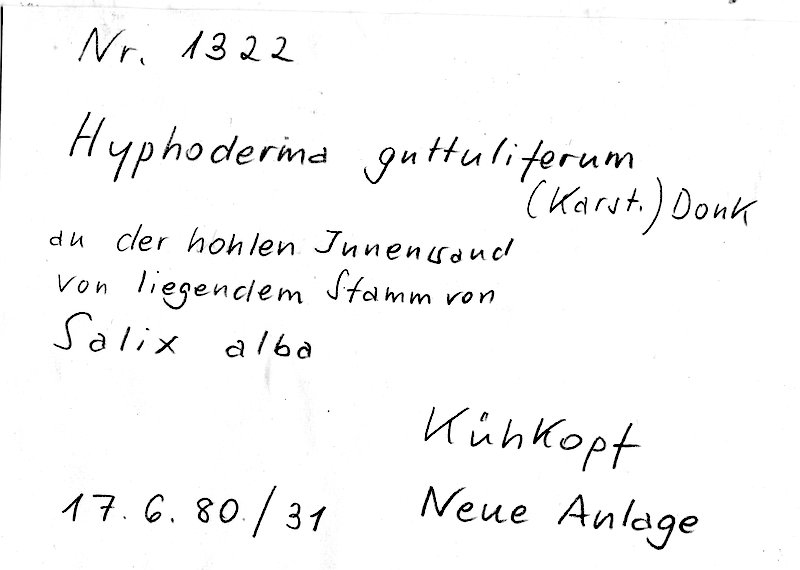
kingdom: Plantae
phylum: Tracheophyta
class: Magnoliopsida
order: Malpighiales
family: Salicaceae
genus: Salix
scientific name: Salix alba
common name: White willow
